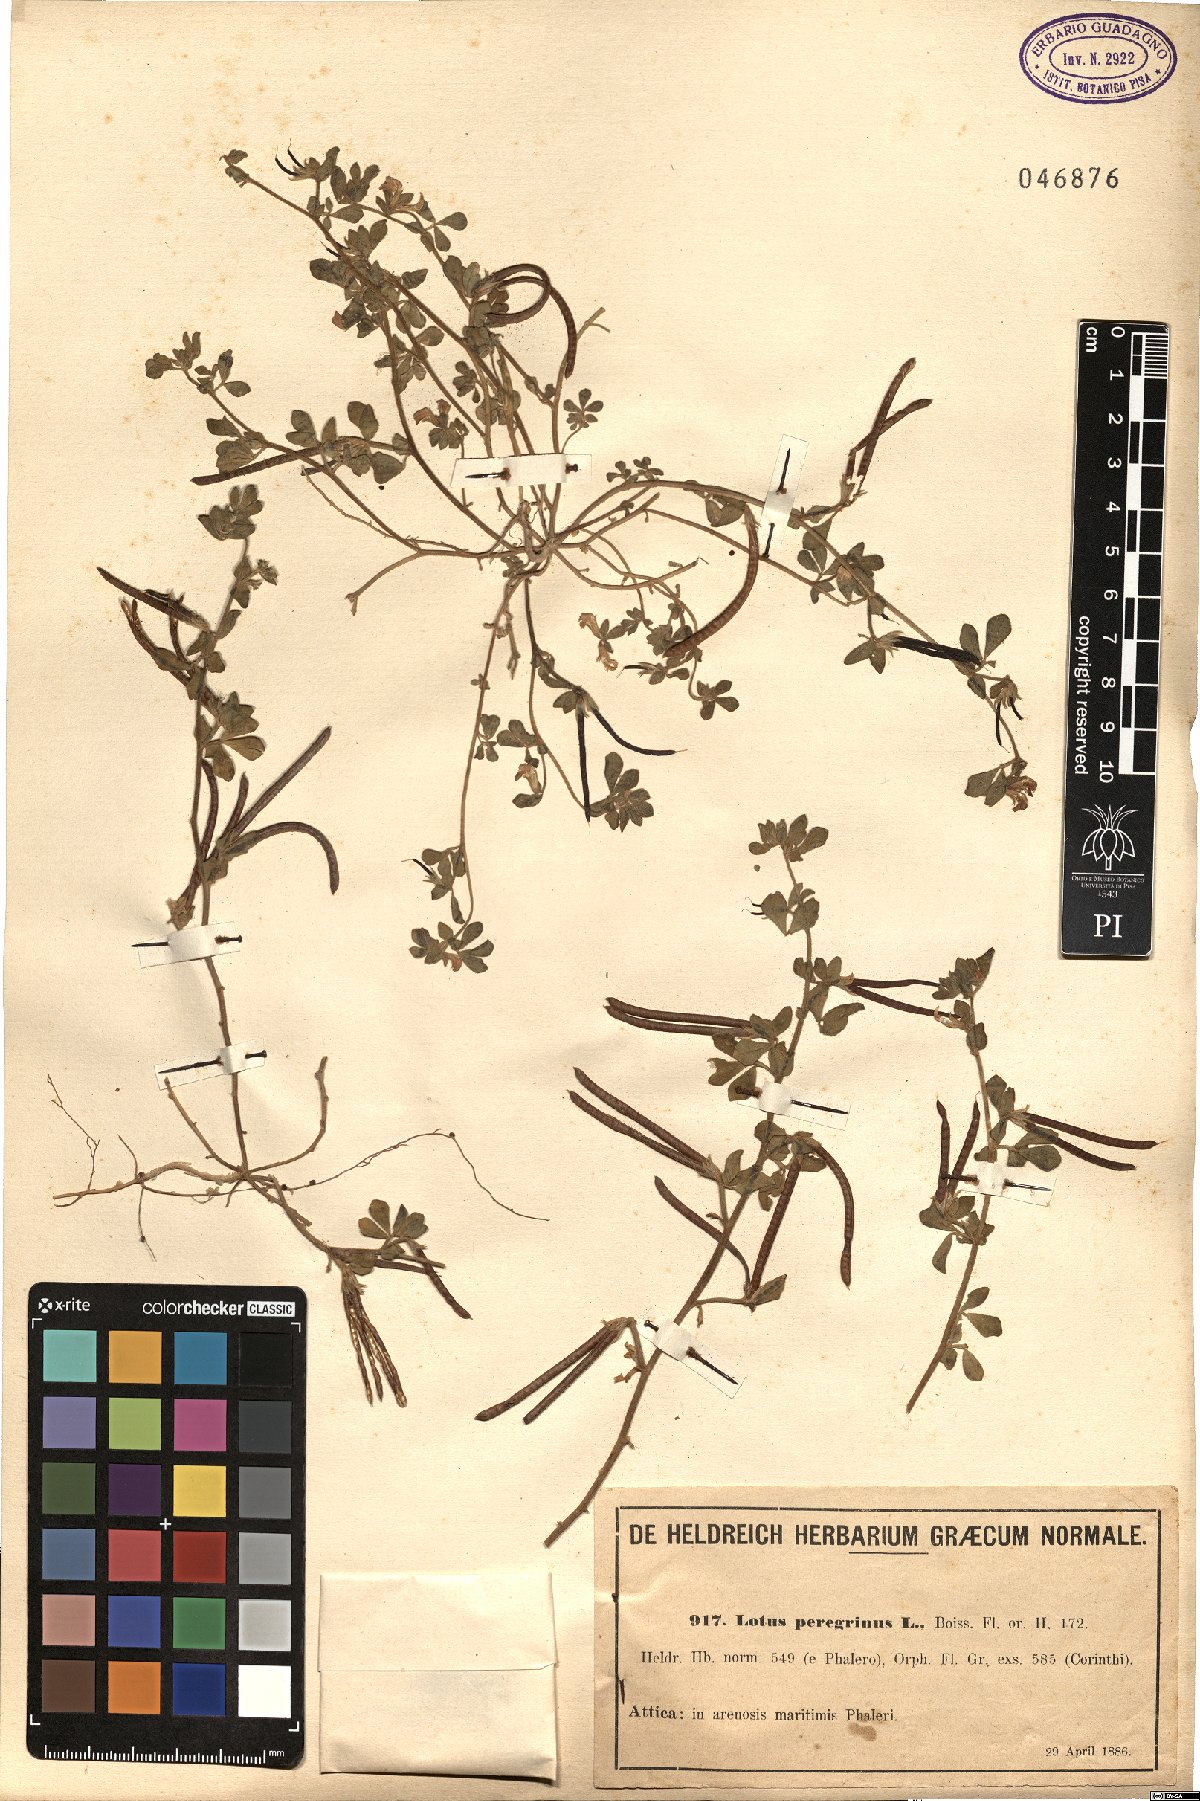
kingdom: Plantae
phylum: Tracheophyta
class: Magnoliopsida
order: Fabales
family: Fabaceae
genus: Lotus
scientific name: Lotus peregrinus
